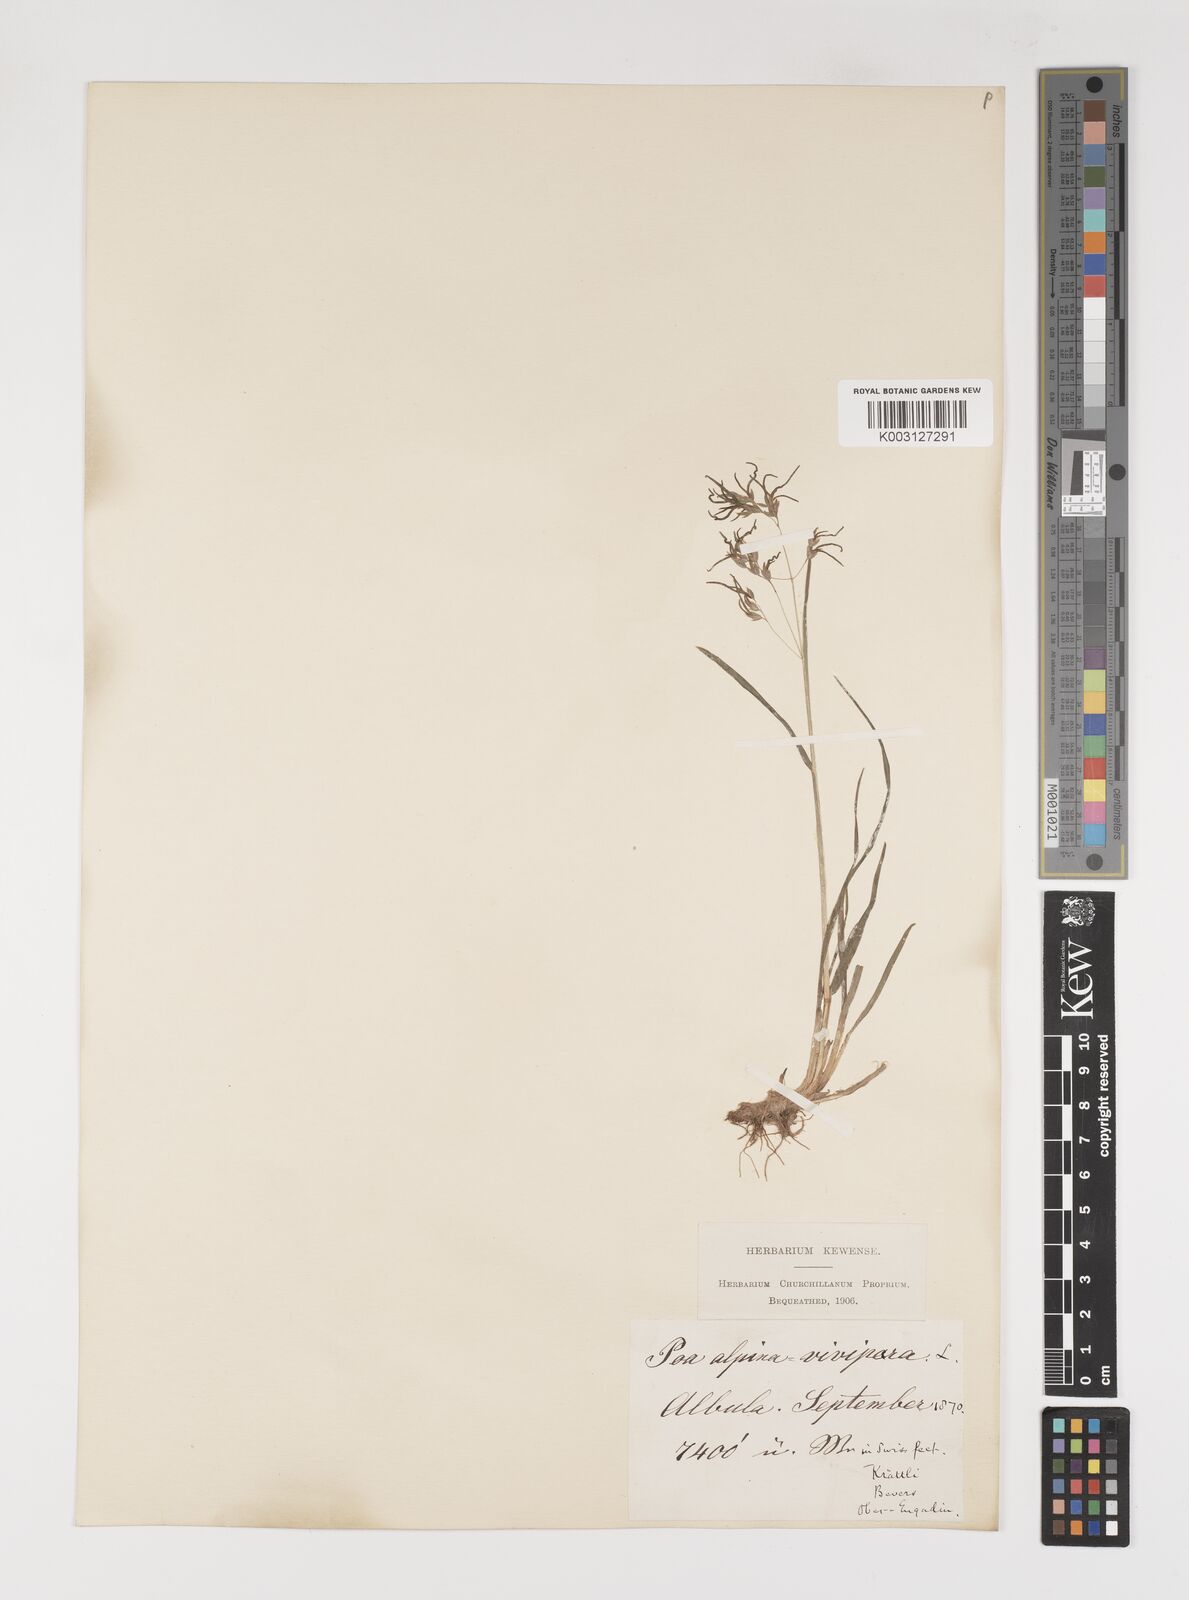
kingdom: Plantae
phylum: Tracheophyta
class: Liliopsida
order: Poales
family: Poaceae
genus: Poa
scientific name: Poa alpina
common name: Alpine bluegrass
